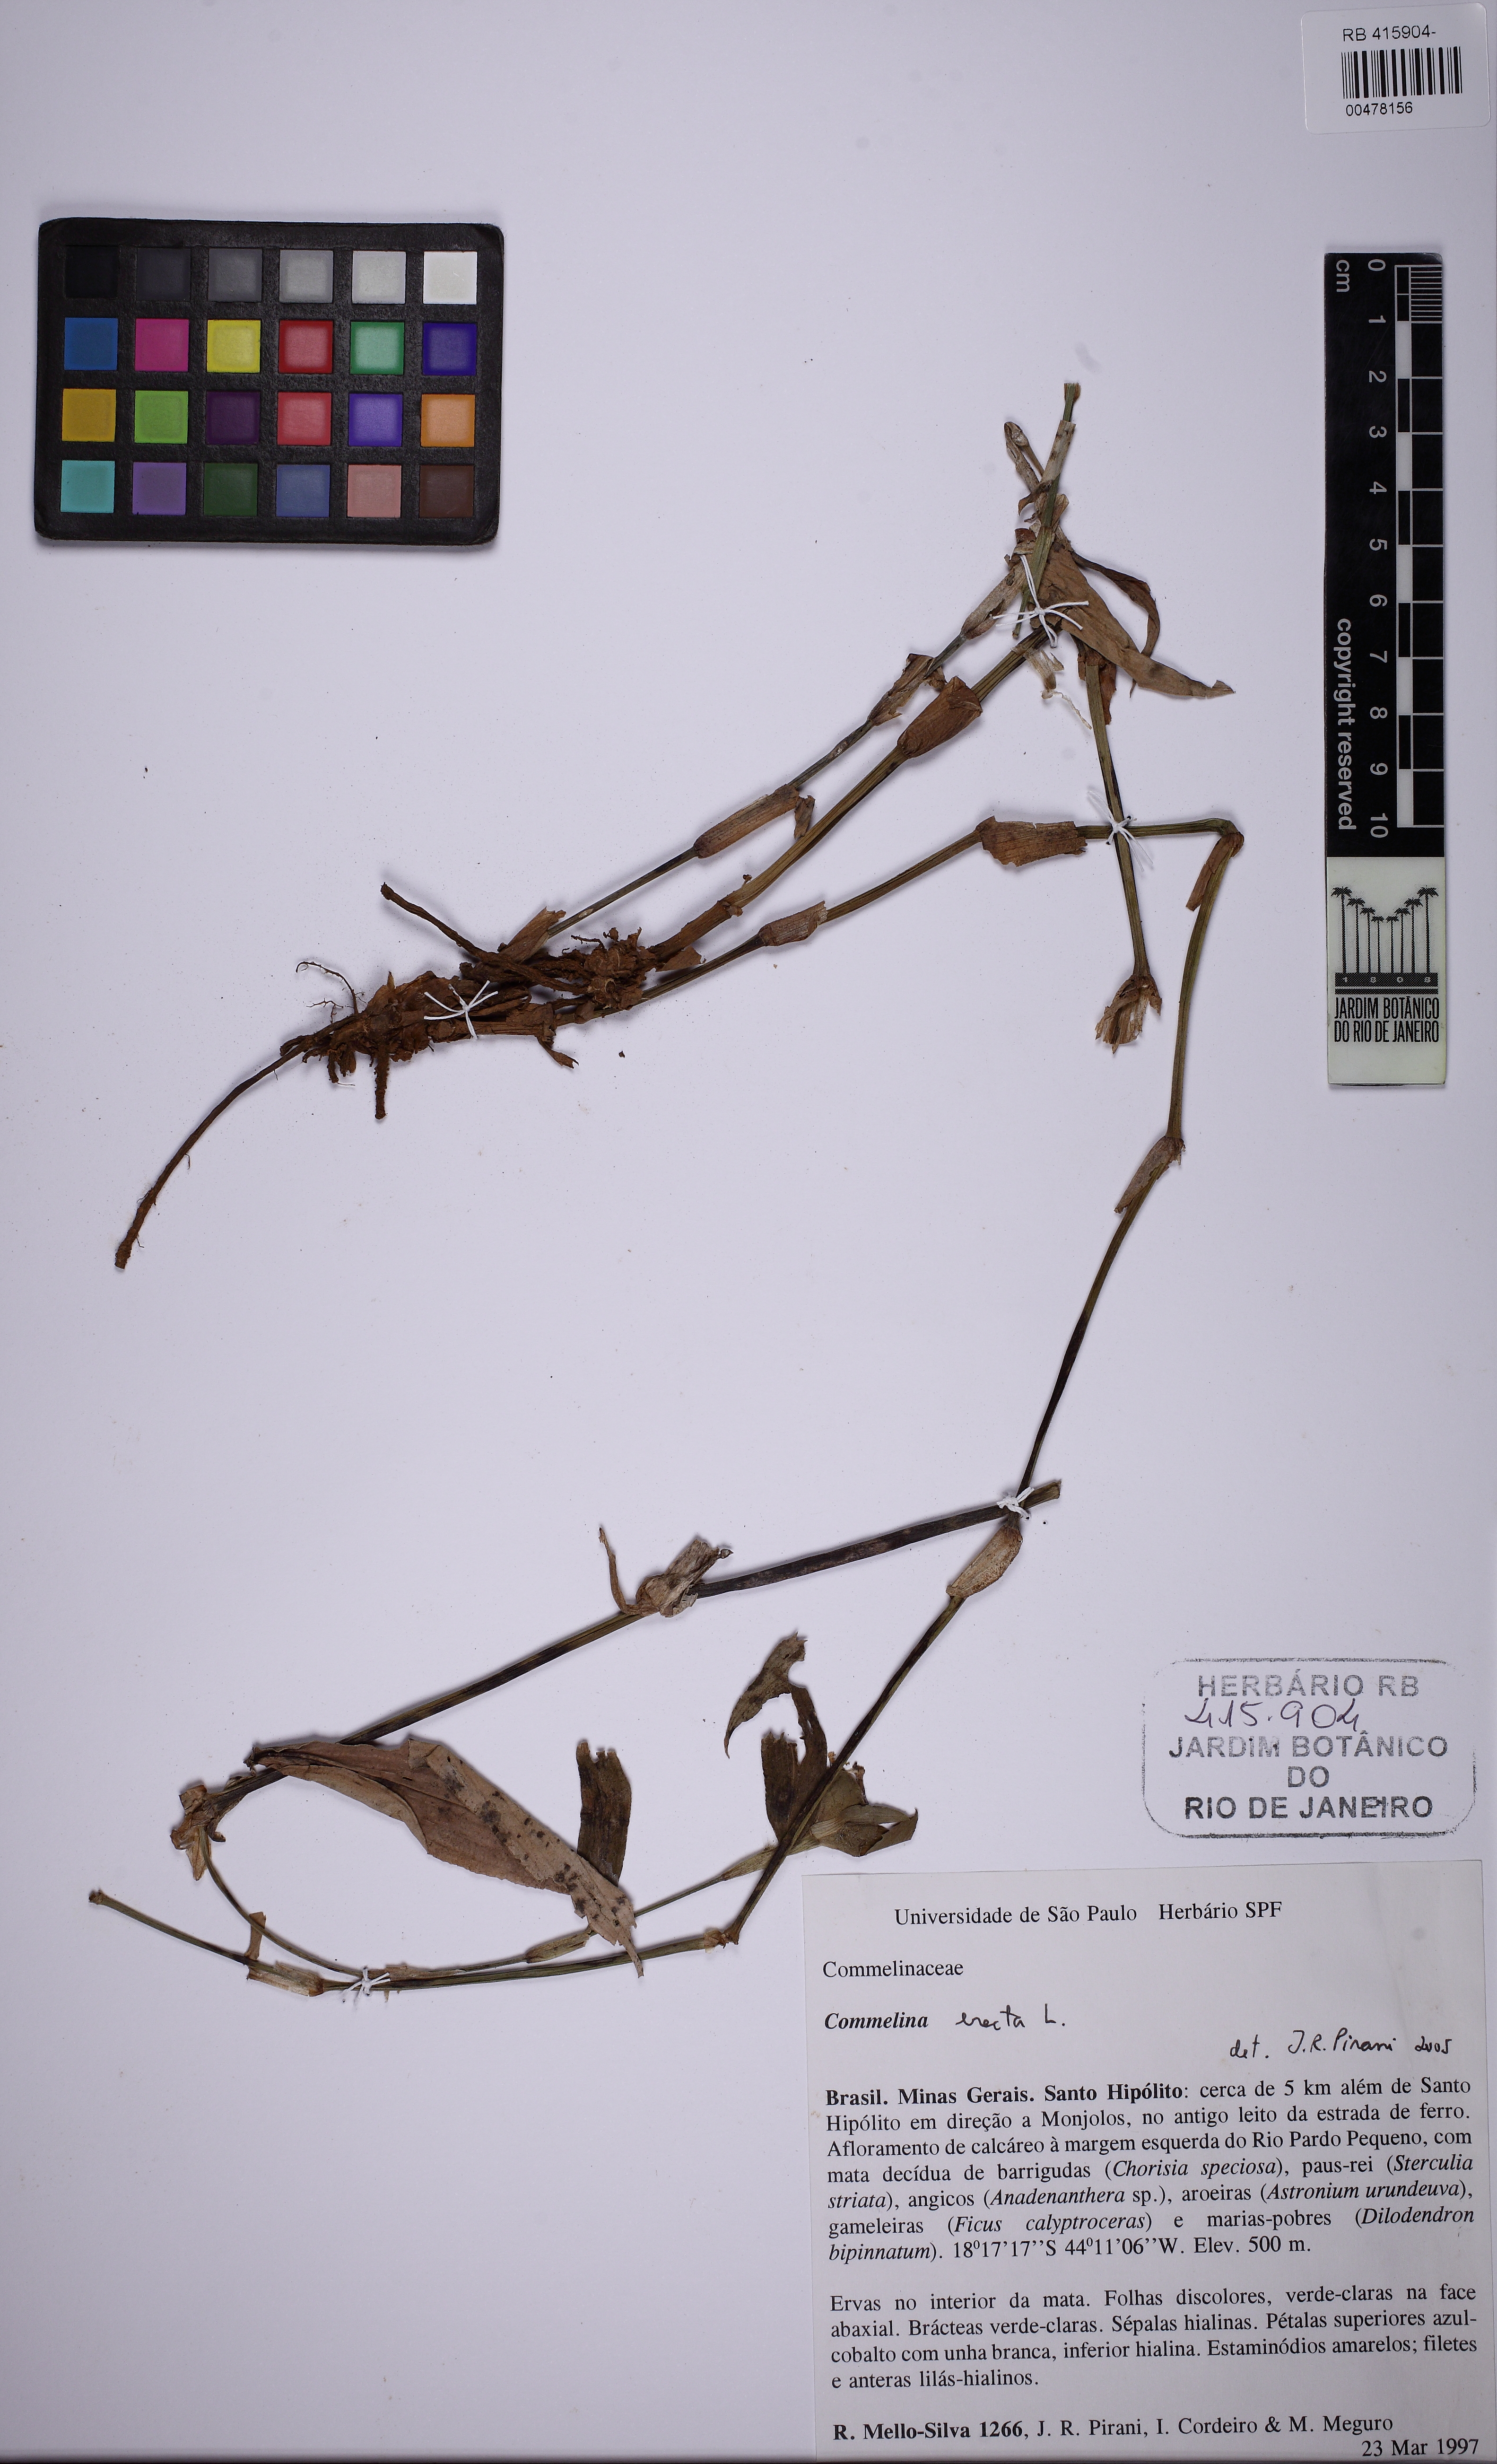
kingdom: Plantae
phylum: Tracheophyta
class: Liliopsida
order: Commelinales
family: Commelinaceae
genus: Commelina
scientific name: Commelina erecta
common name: Blousel blommetjie
